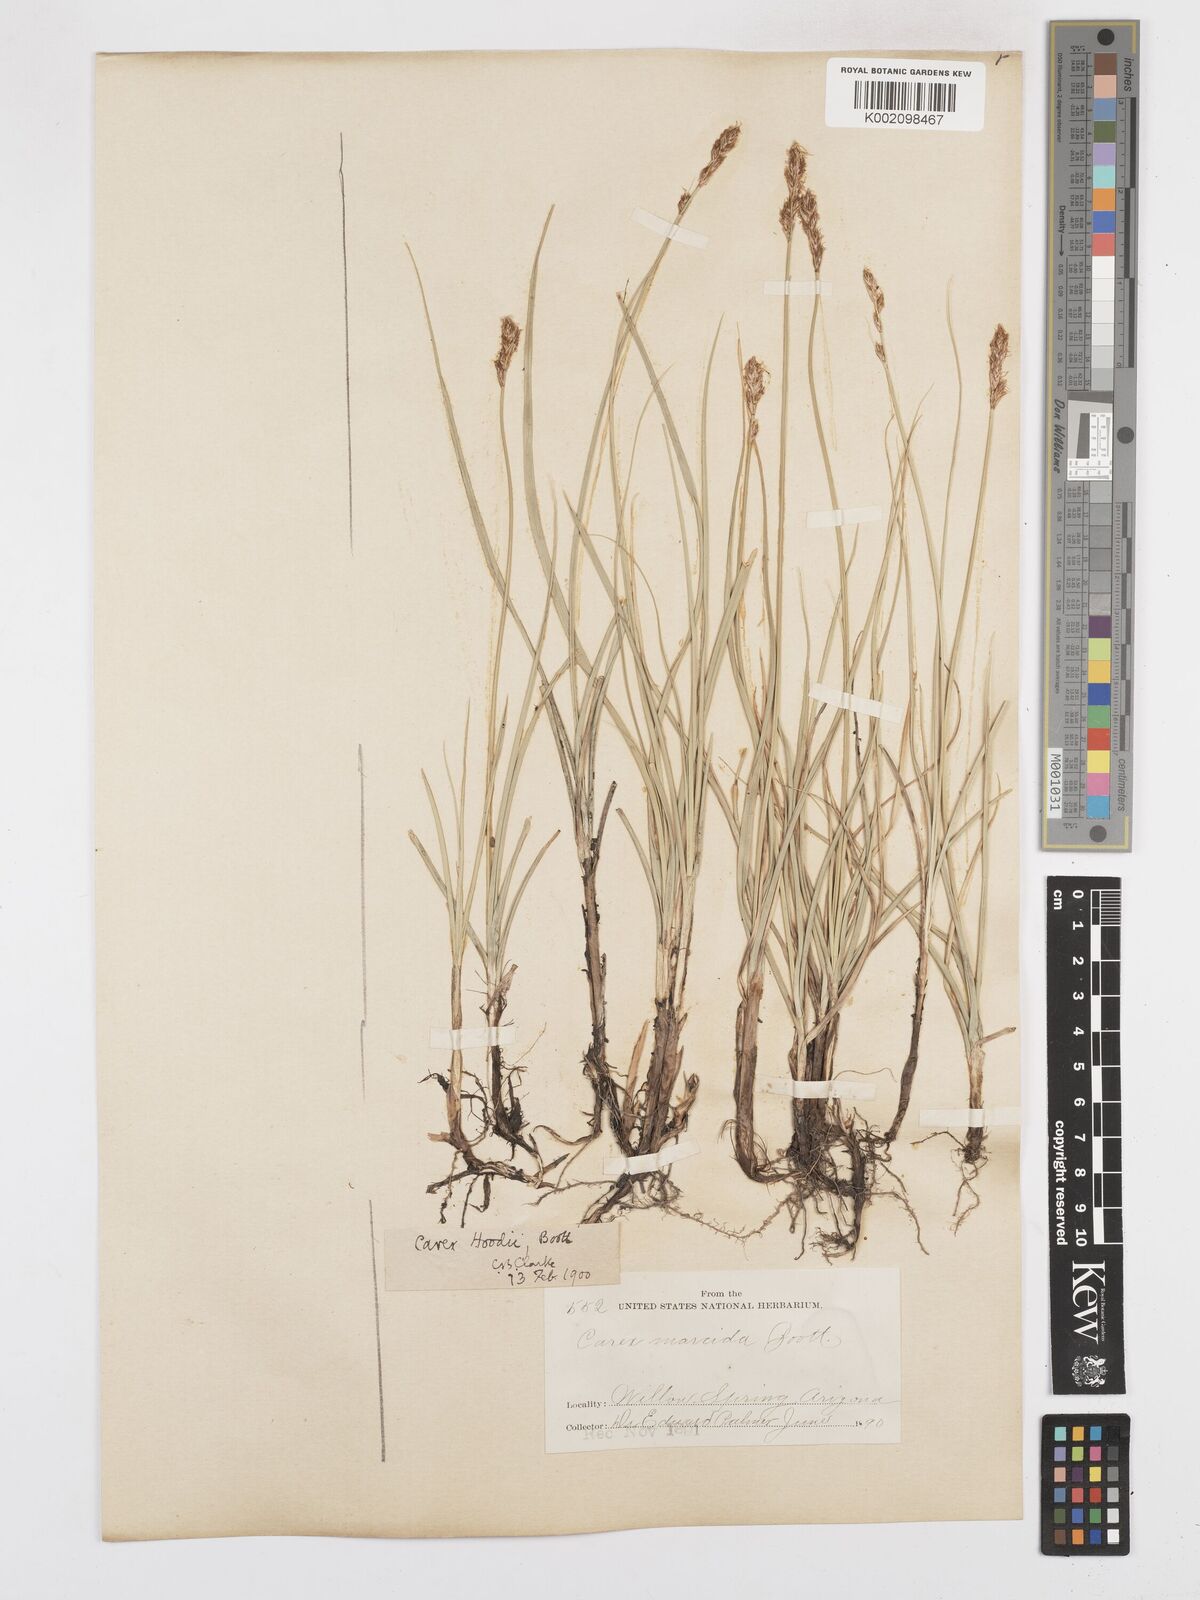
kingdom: Plantae
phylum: Tracheophyta
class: Liliopsida
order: Poales
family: Cyperaceae
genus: Carex
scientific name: Carex hoodii
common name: Hood's sedge
